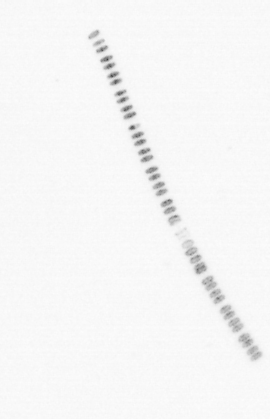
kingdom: Chromista
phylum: Ochrophyta
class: Bacillariophyceae
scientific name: Bacillariophyceae
